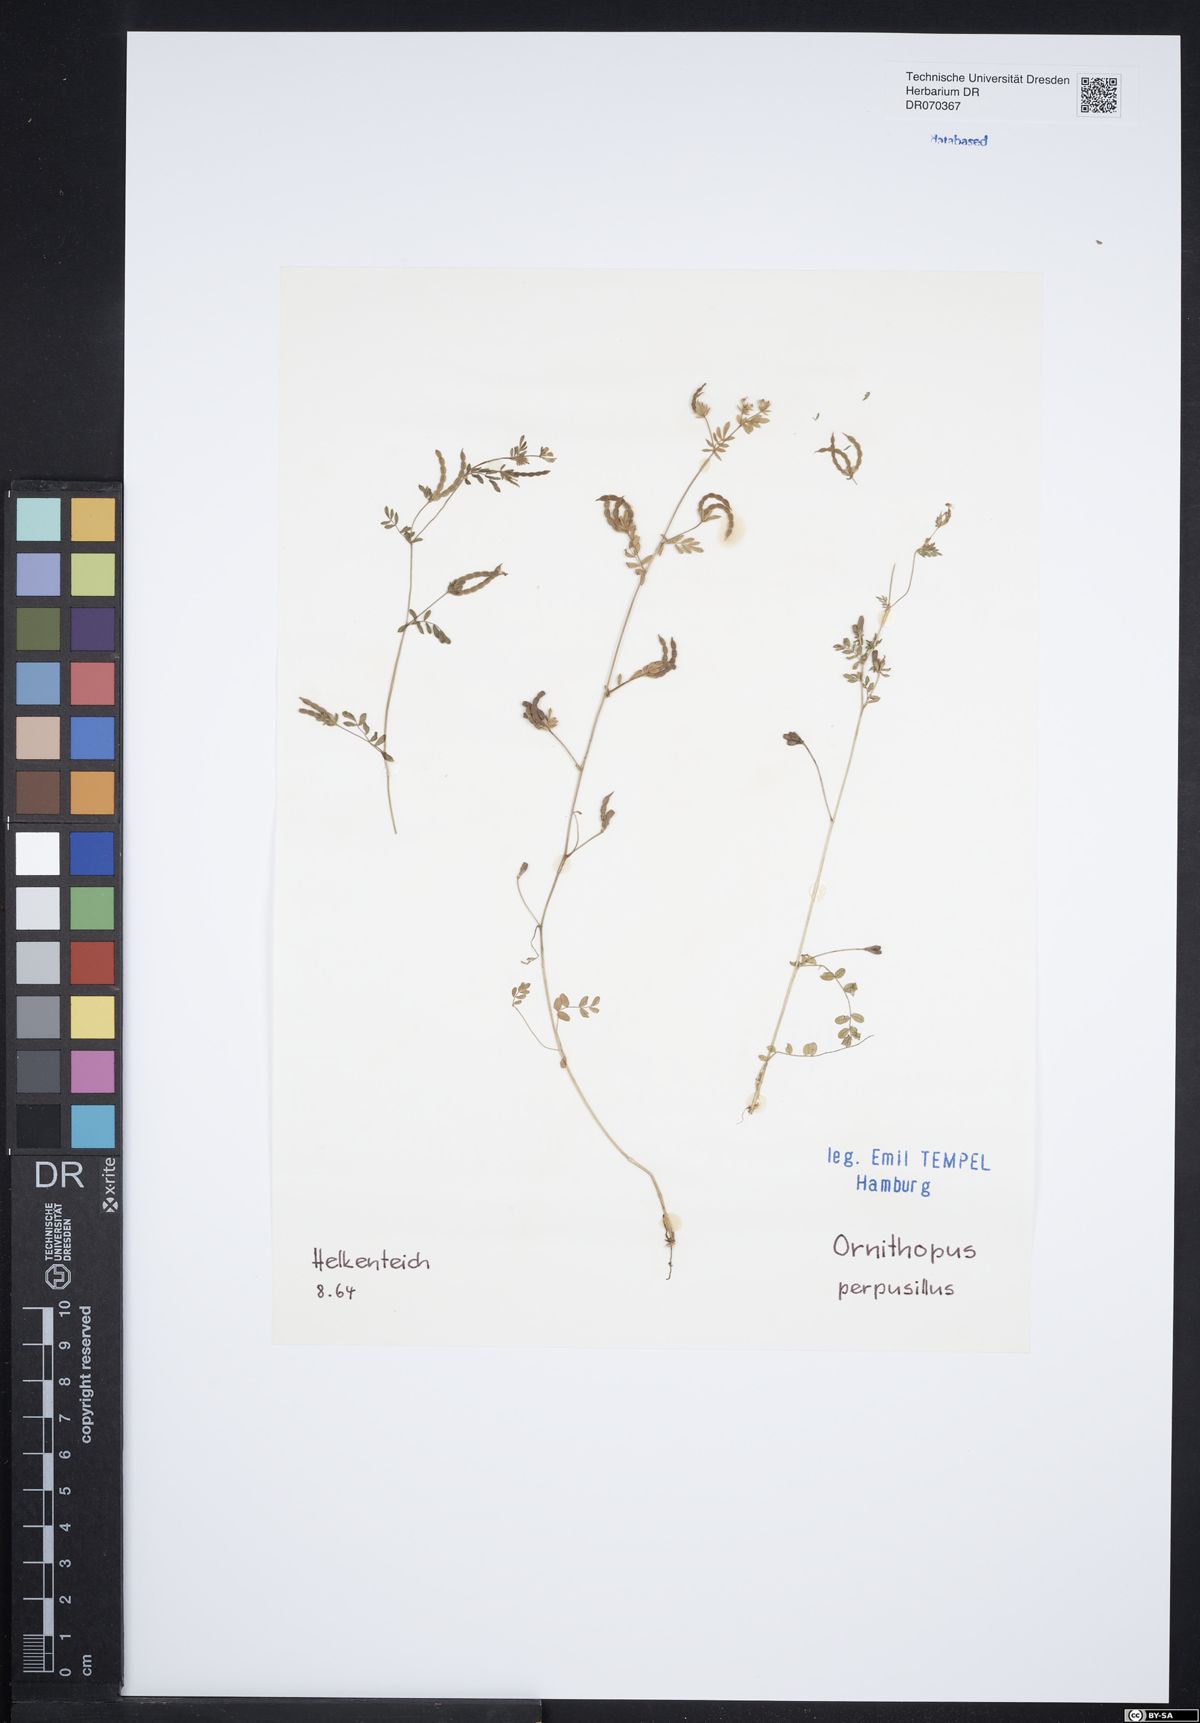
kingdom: Plantae
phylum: Tracheophyta
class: Magnoliopsida
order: Fabales
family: Fabaceae
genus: Ornithopus
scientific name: Ornithopus perpusillus
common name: Bird's-foot
